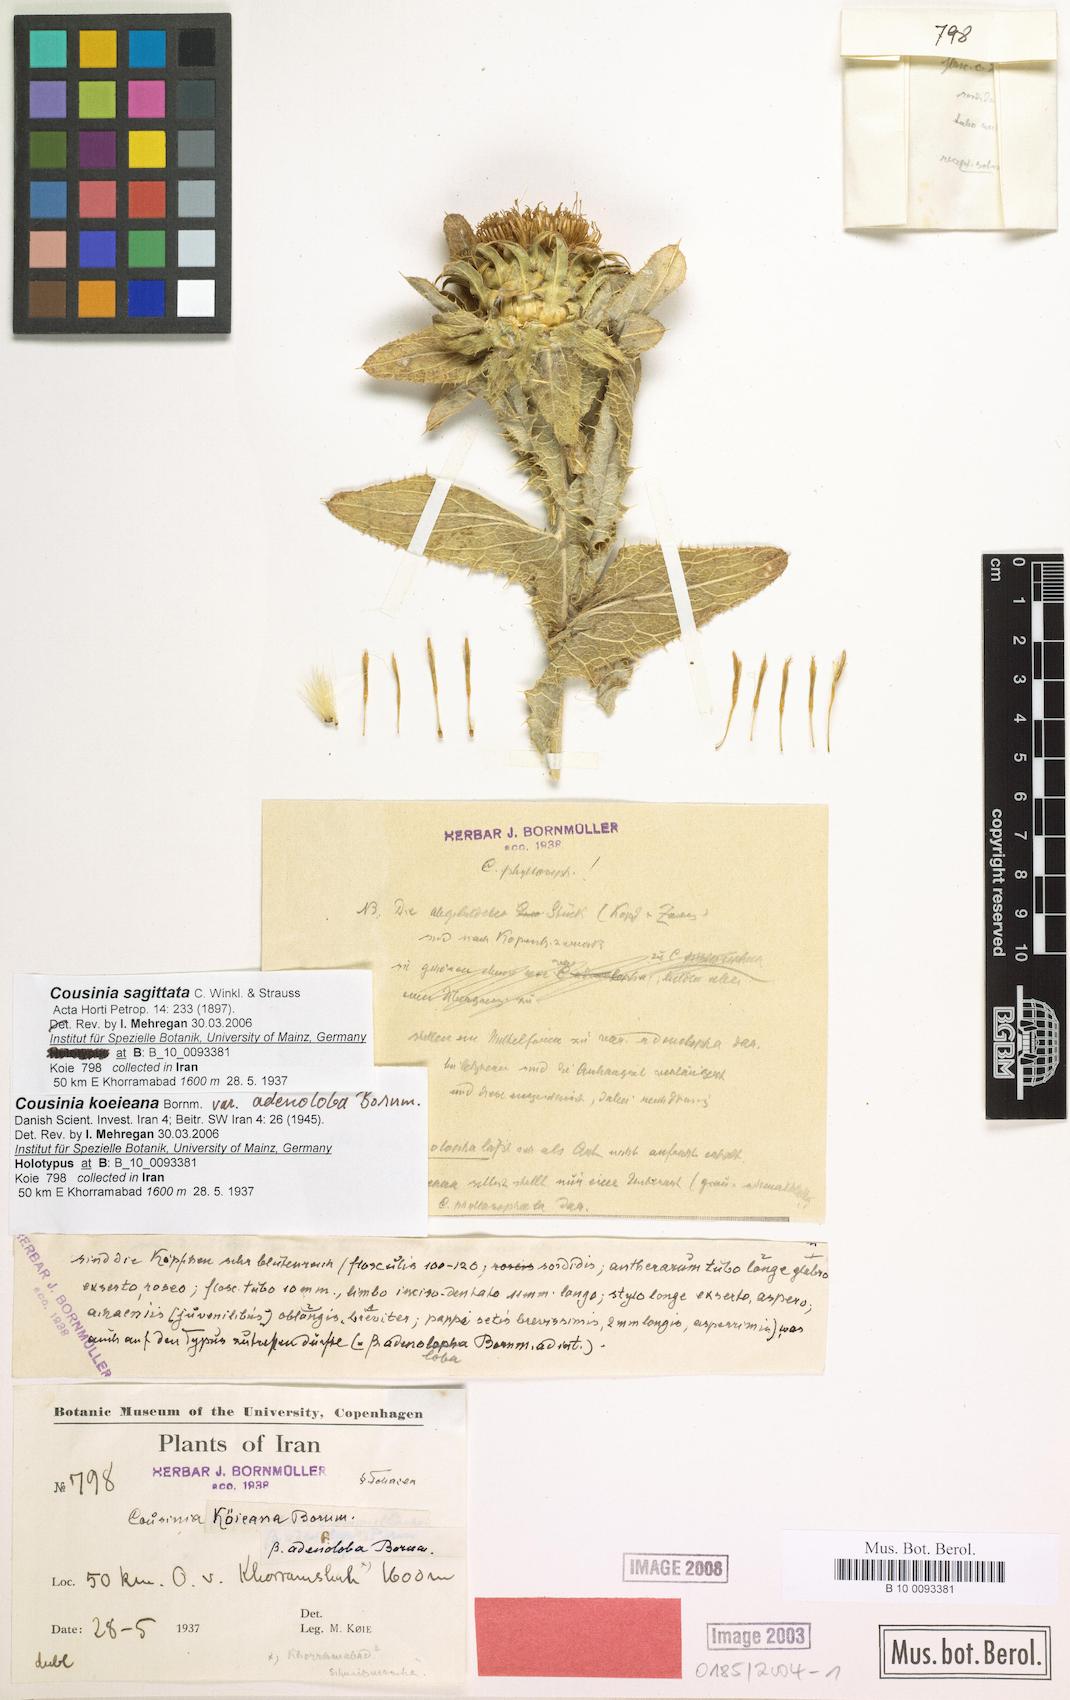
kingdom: Plantae
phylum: Tracheophyta
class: Magnoliopsida
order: Asterales
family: Asteraceae
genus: Cousinia
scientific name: Cousinia sagittata
